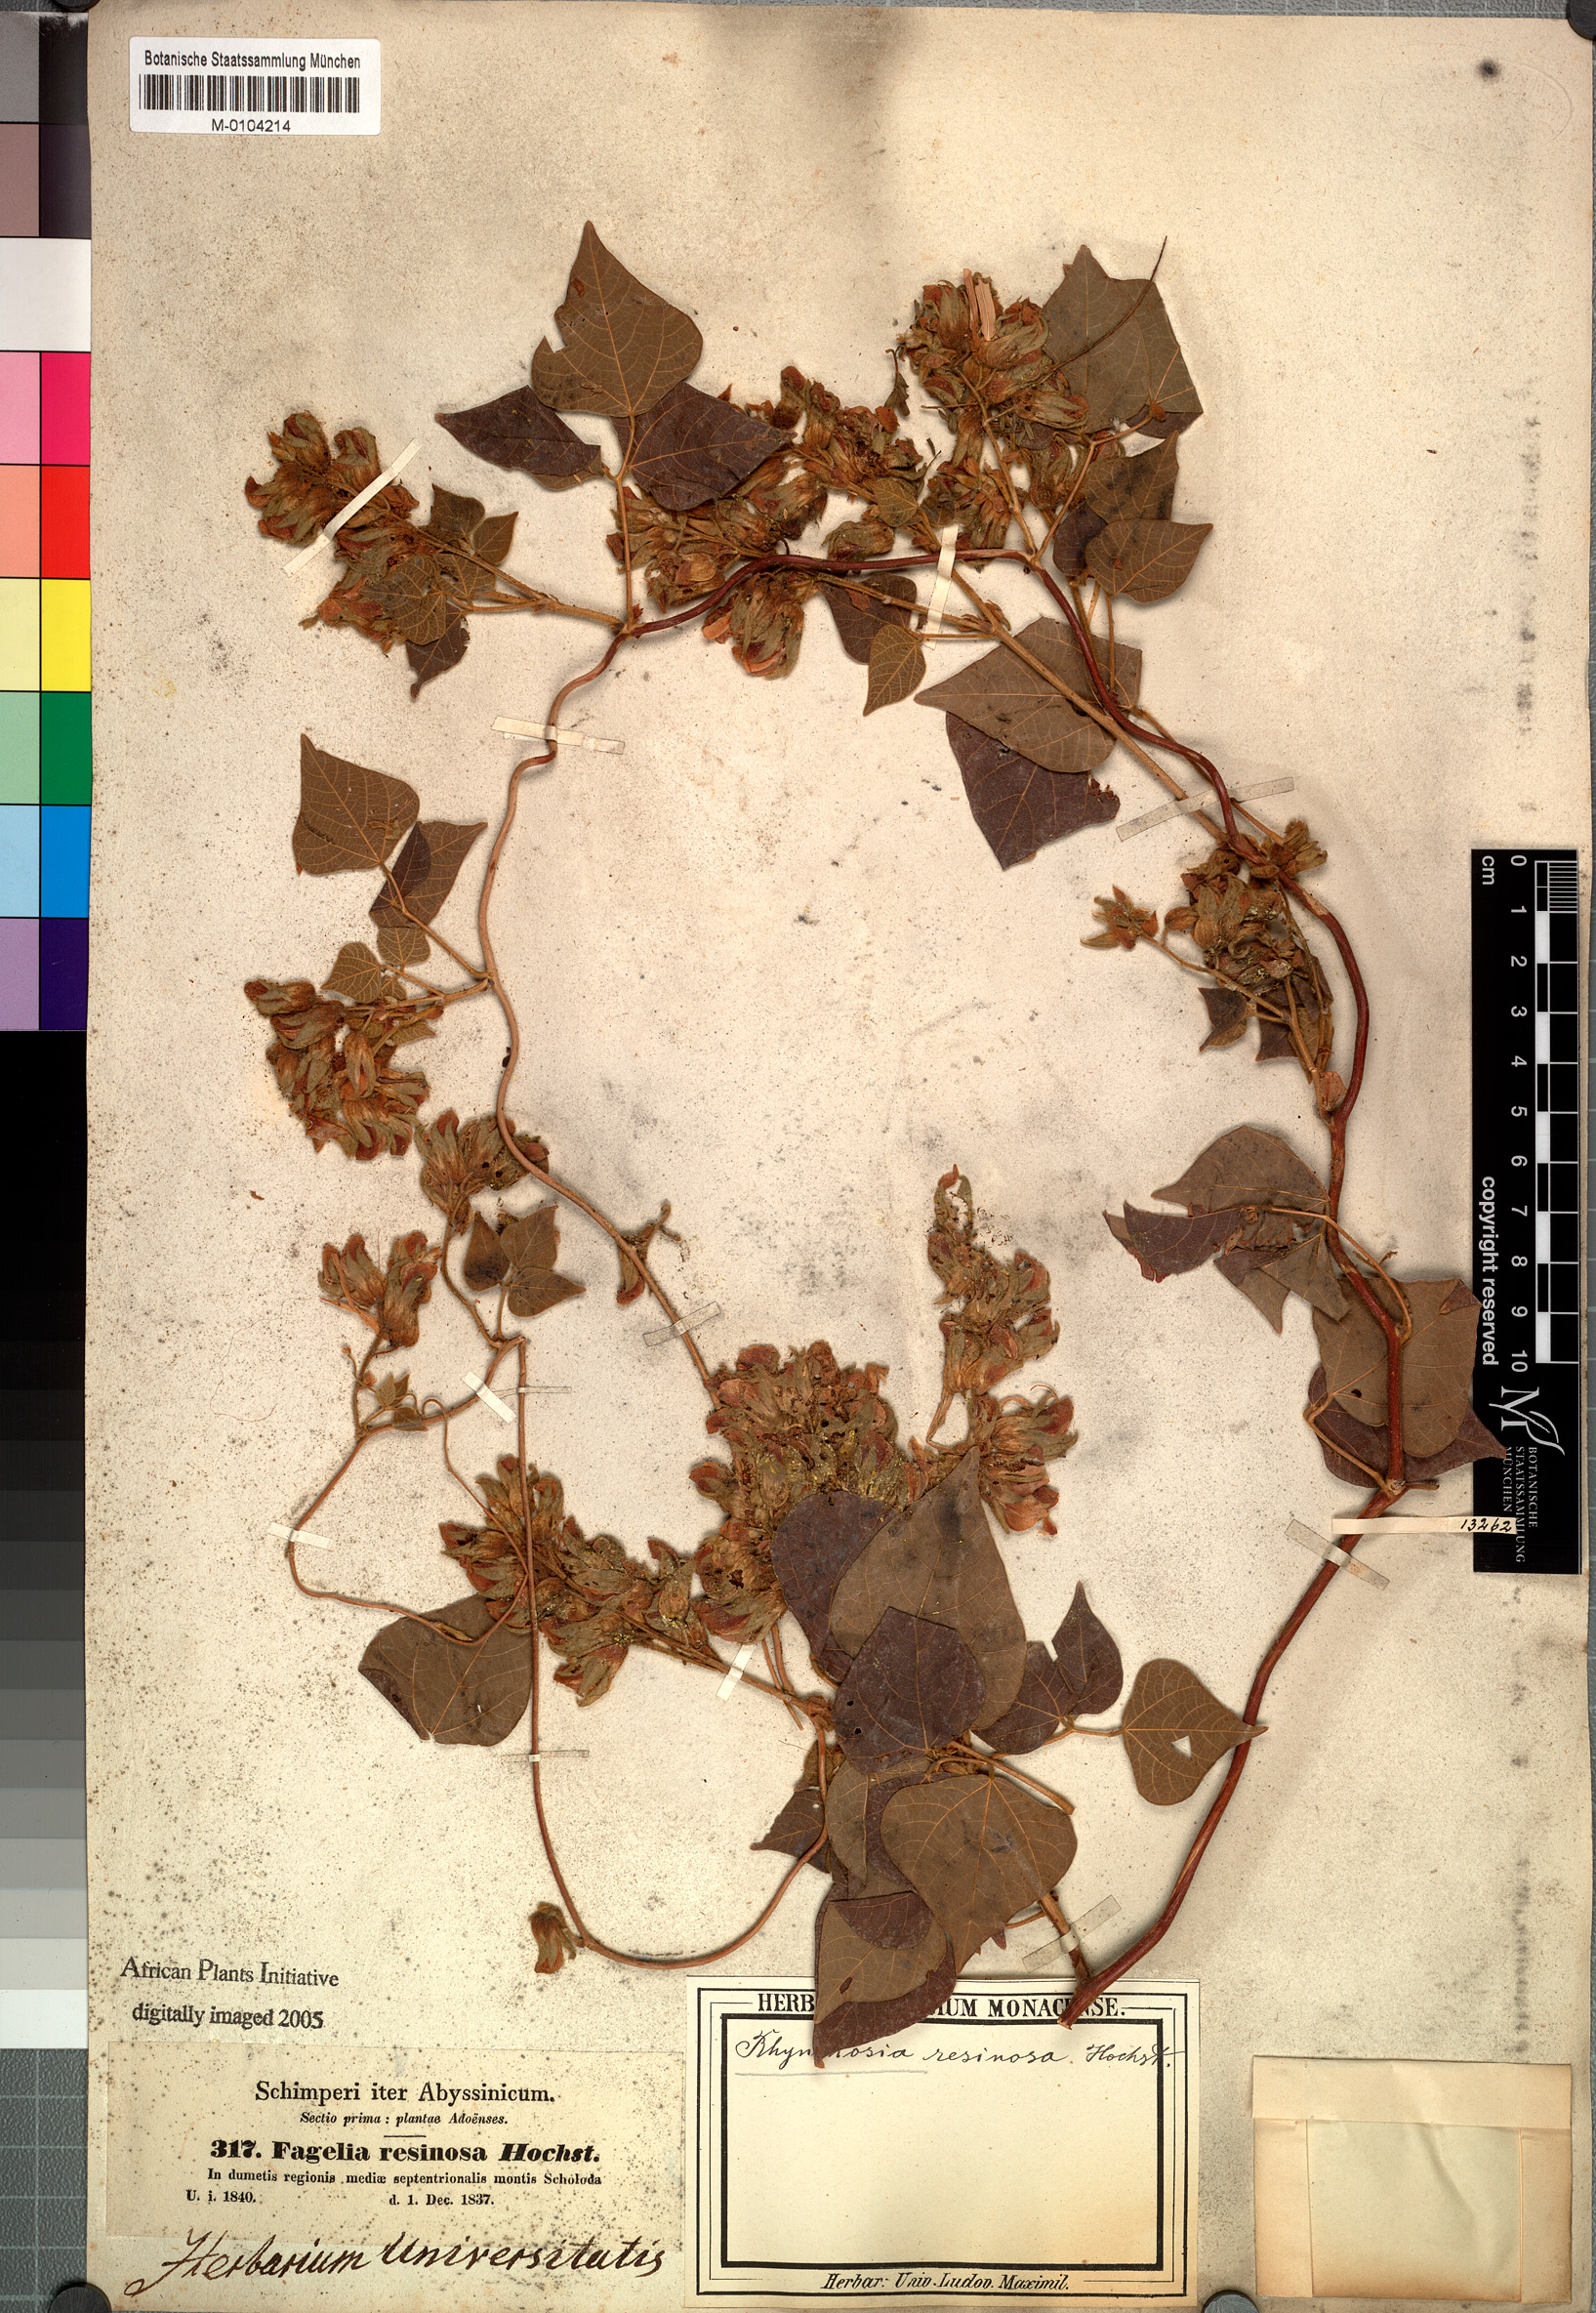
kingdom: Plantae
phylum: Tracheophyta
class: Magnoliopsida
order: Fabales
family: Fabaceae
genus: Rhynchosia
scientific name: Rhynchosia resinosa
